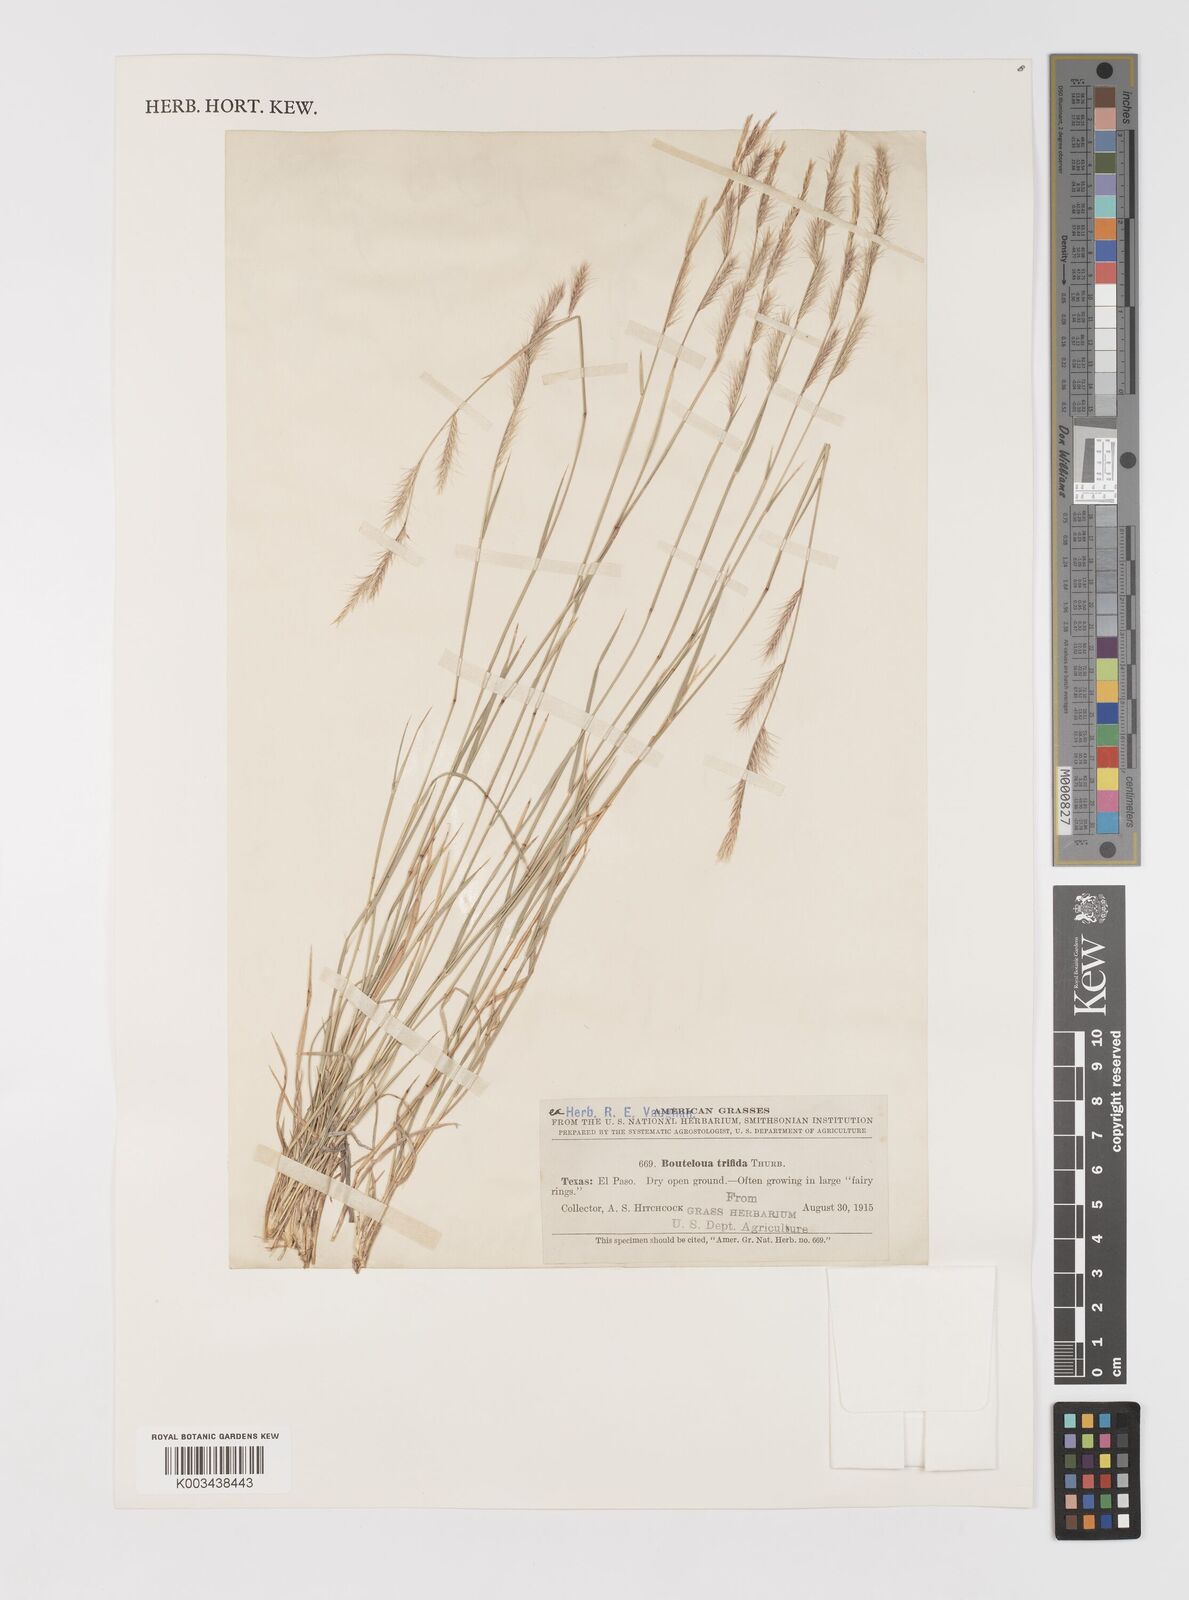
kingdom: Plantae
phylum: Tracheophyta
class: Liliopsida
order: Poales
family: Poaceae
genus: Bouteloua
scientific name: Bouteloua trifida
